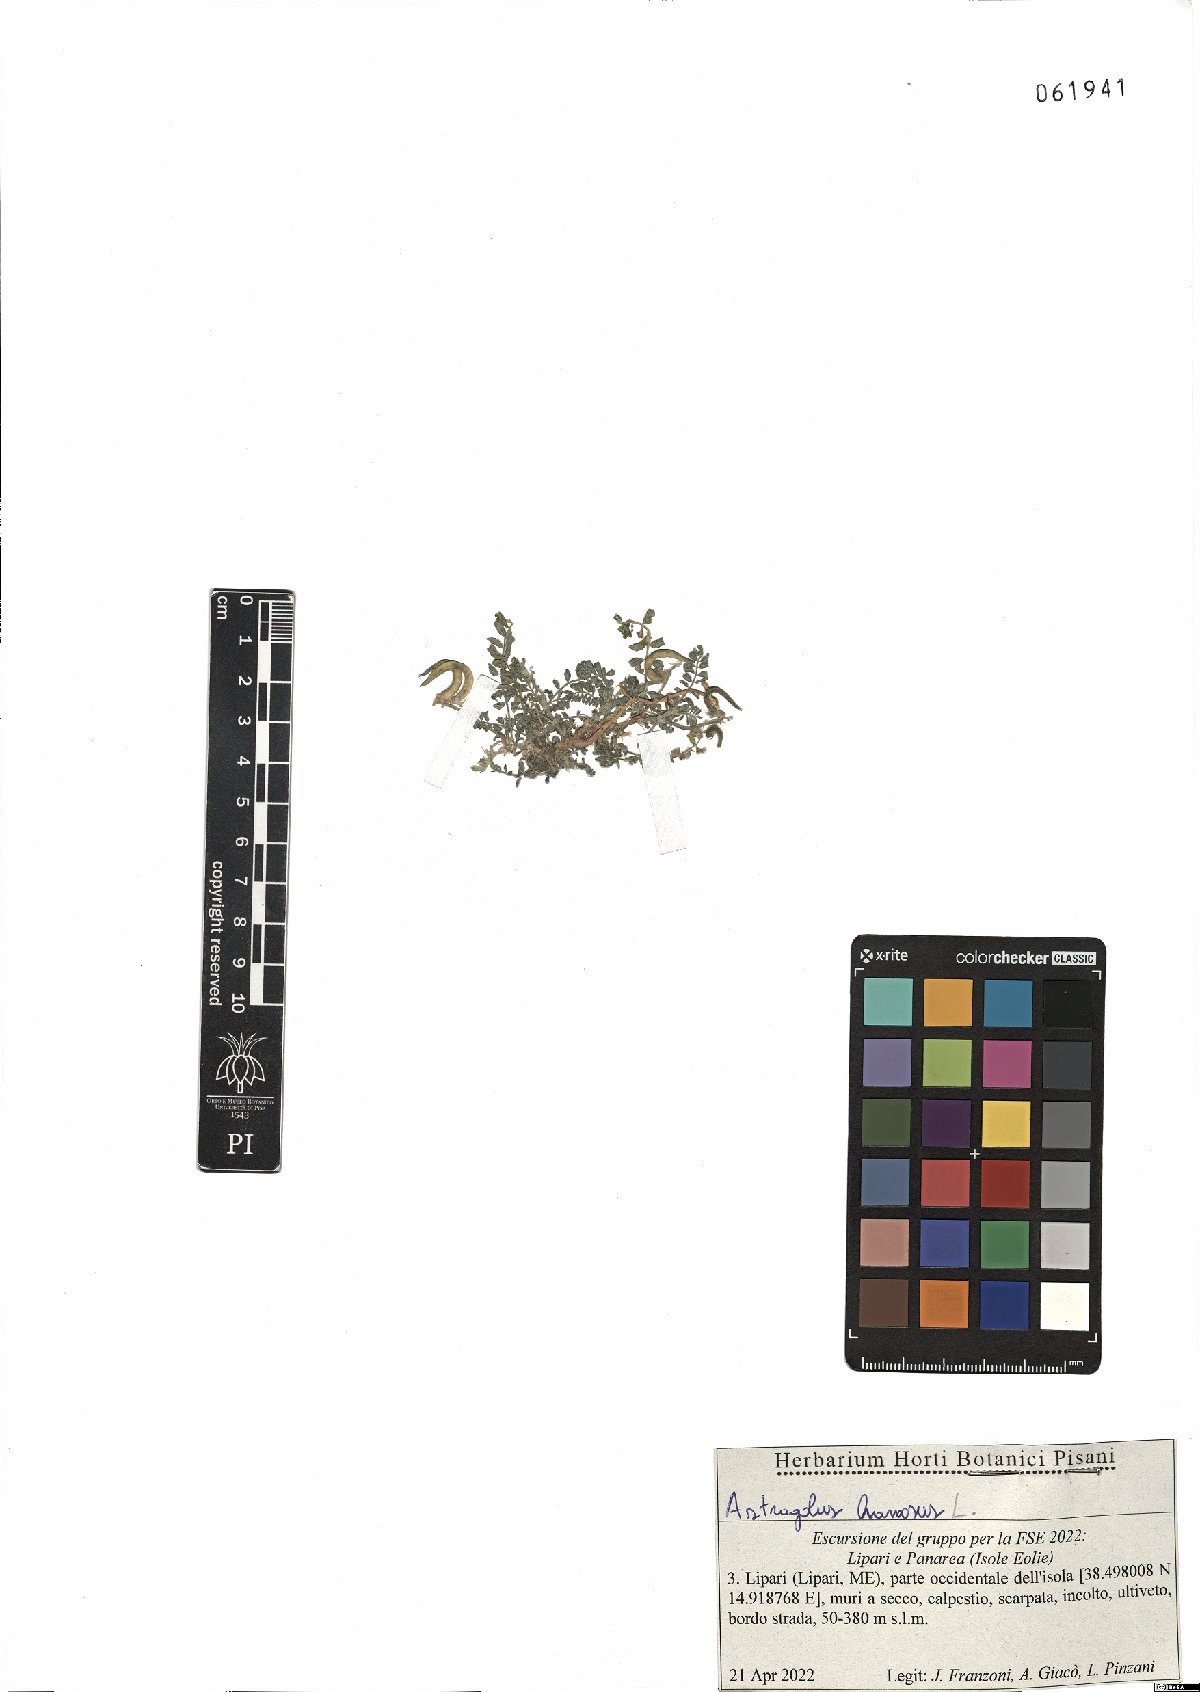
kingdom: Plantae
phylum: Tracheophyta
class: Magnoliopsida
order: Fabales
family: Fabaceae
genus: Astragalus
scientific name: Astragalus hamosus
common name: European milkvetch
